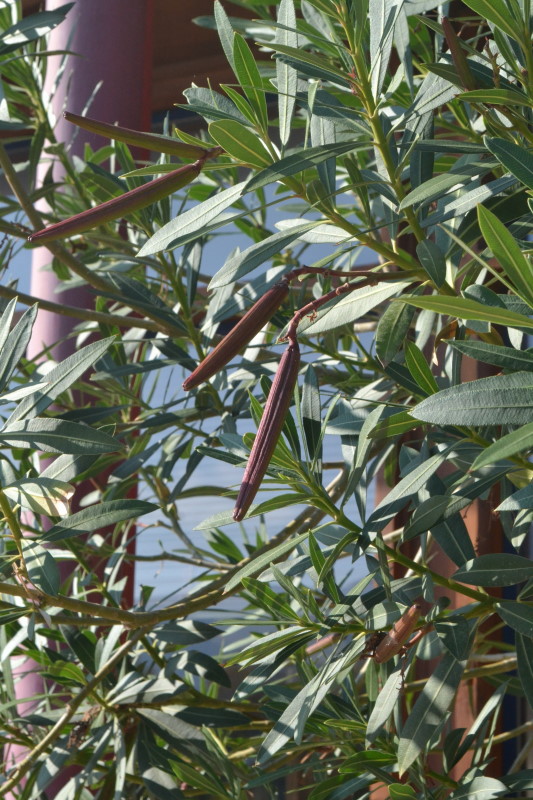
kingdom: Plantae
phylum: Tracheophyta
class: Magnoliopsida
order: Gentianales
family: Apocynaceae
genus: Nerium
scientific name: Nerium oleander
